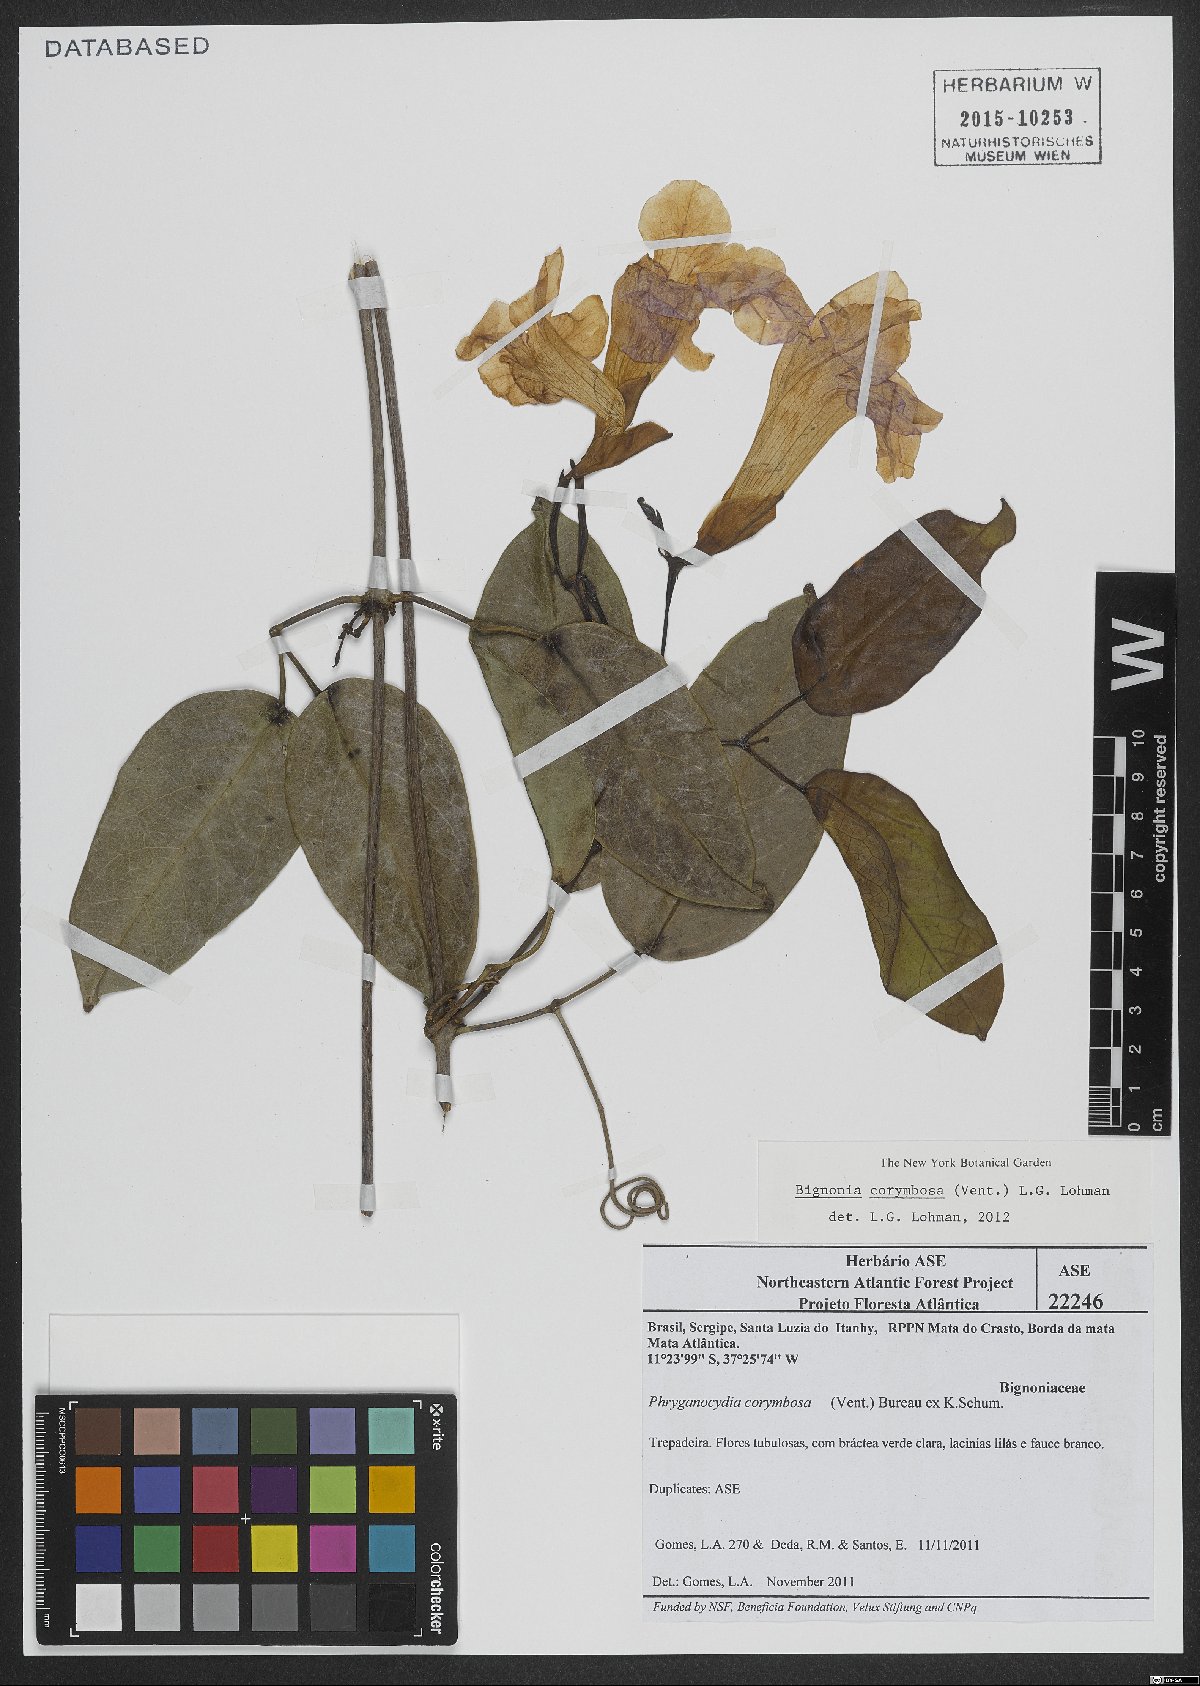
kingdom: Plantae
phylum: Tracheophyta
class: Magnoliopsida
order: Lamiales
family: Bignoniaceae
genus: Bignonia
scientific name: Bignonia corymbosa
